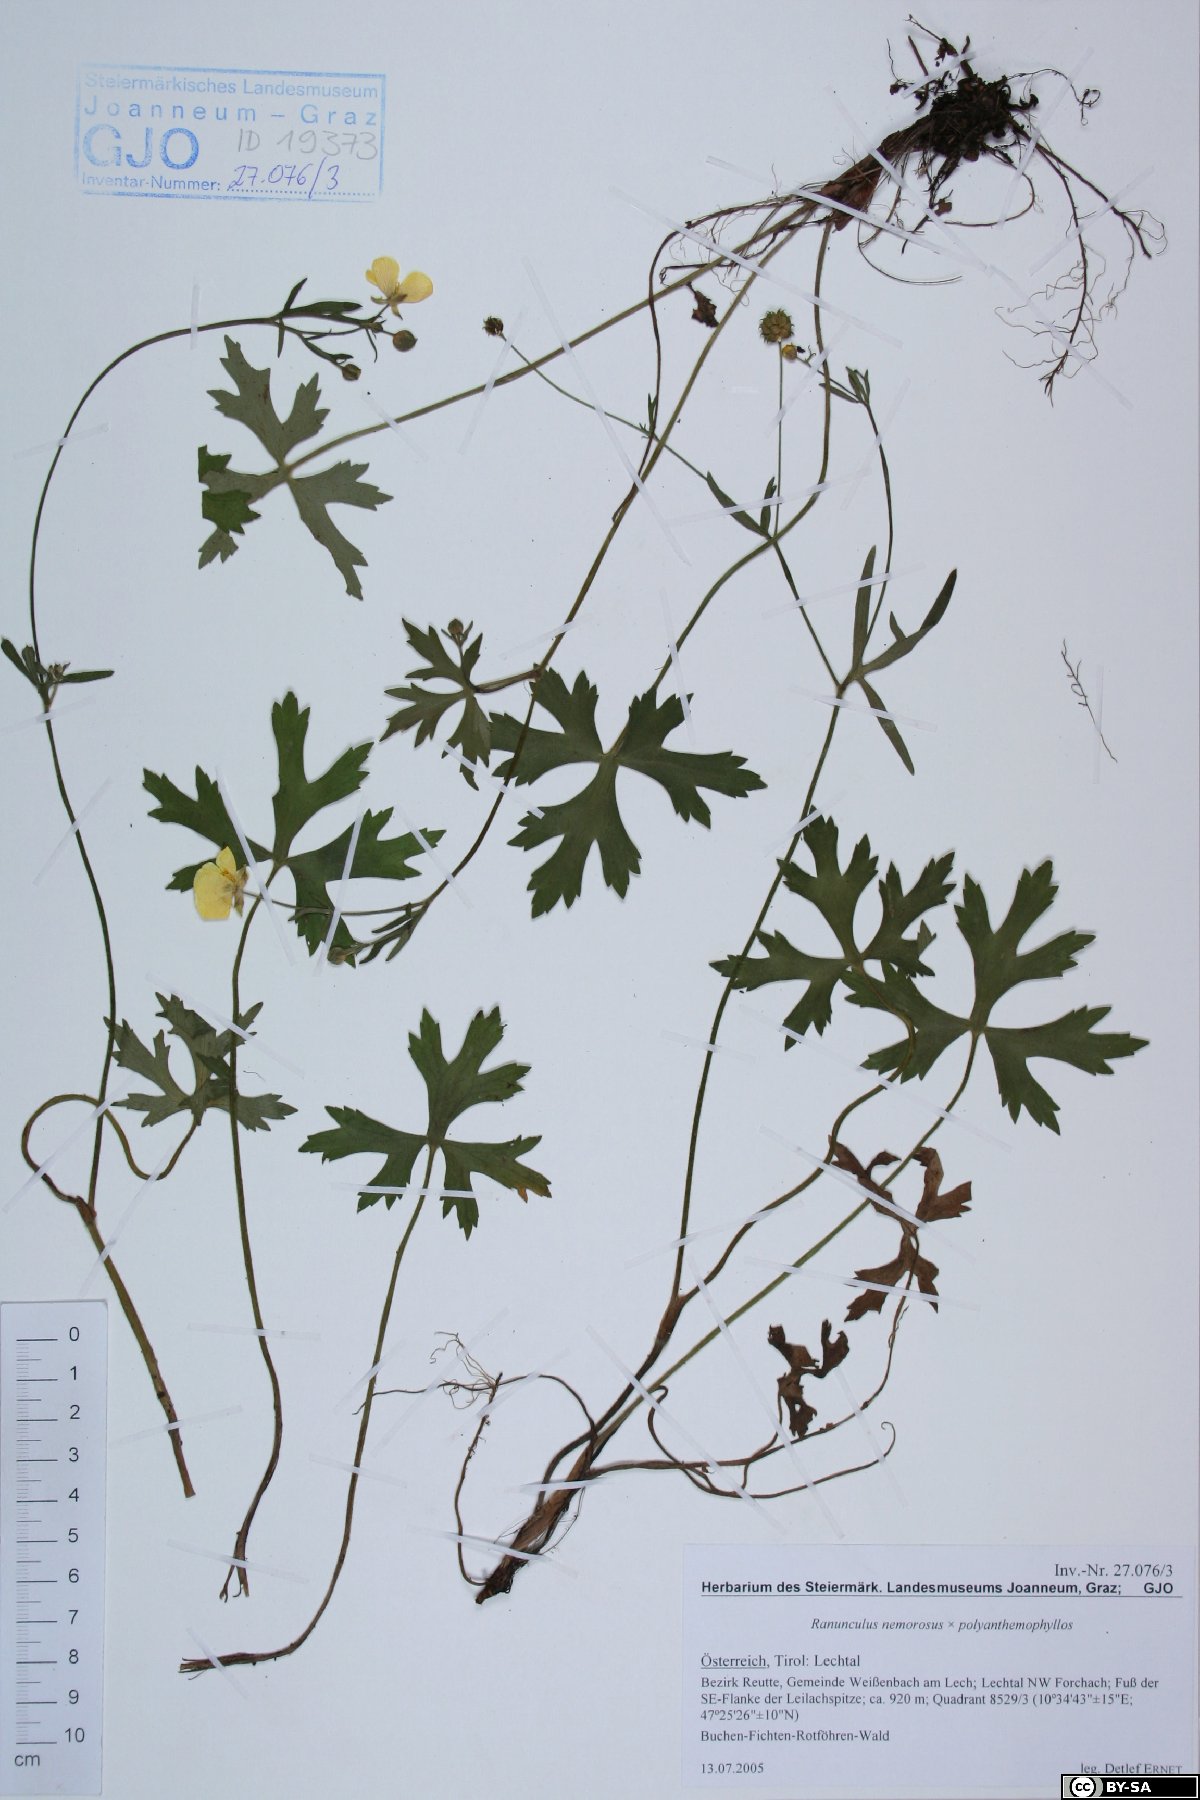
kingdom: Plantae
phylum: Tracheophyta
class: Magnoliopsida
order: Ranunculales
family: Ranunculaceae
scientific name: Ranunculaceae
